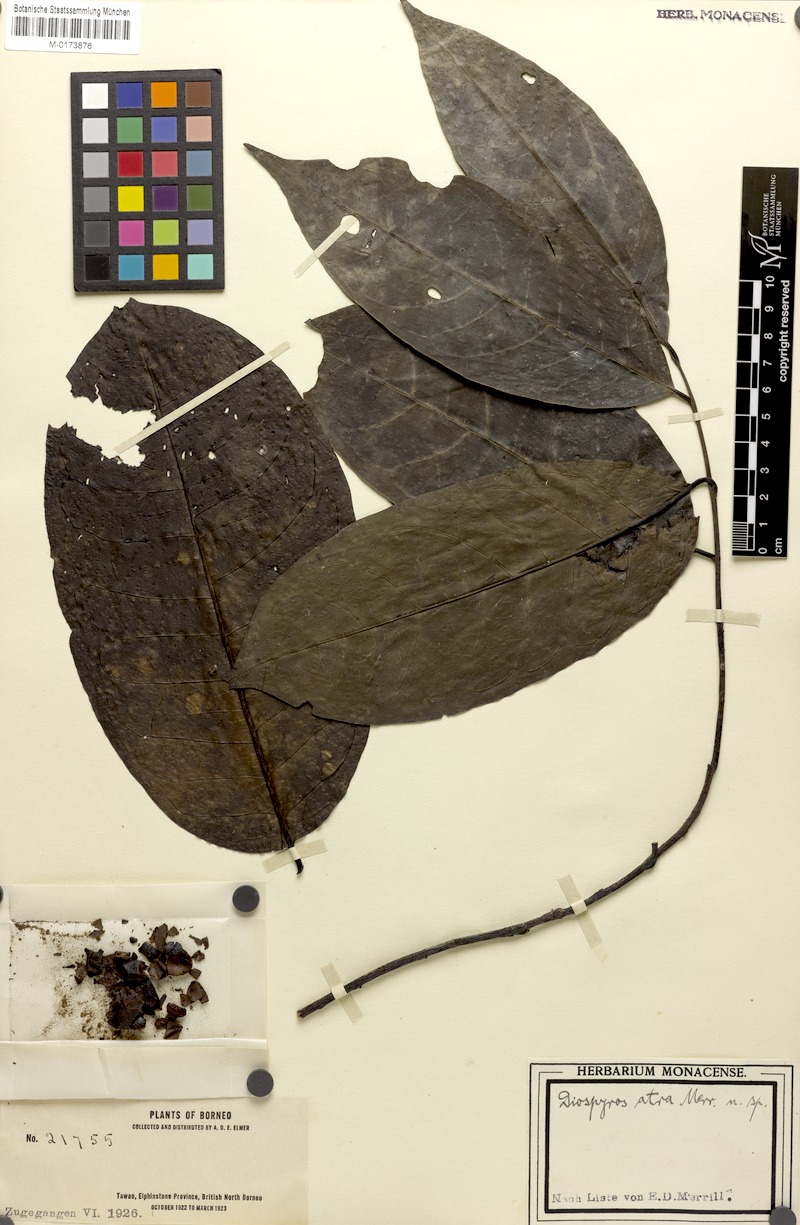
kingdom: Plantae
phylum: Tracheophyta
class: Magnoliopsida
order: Ericales
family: Ebenaceae
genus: Diospyros
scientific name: Diospyros frutescens
